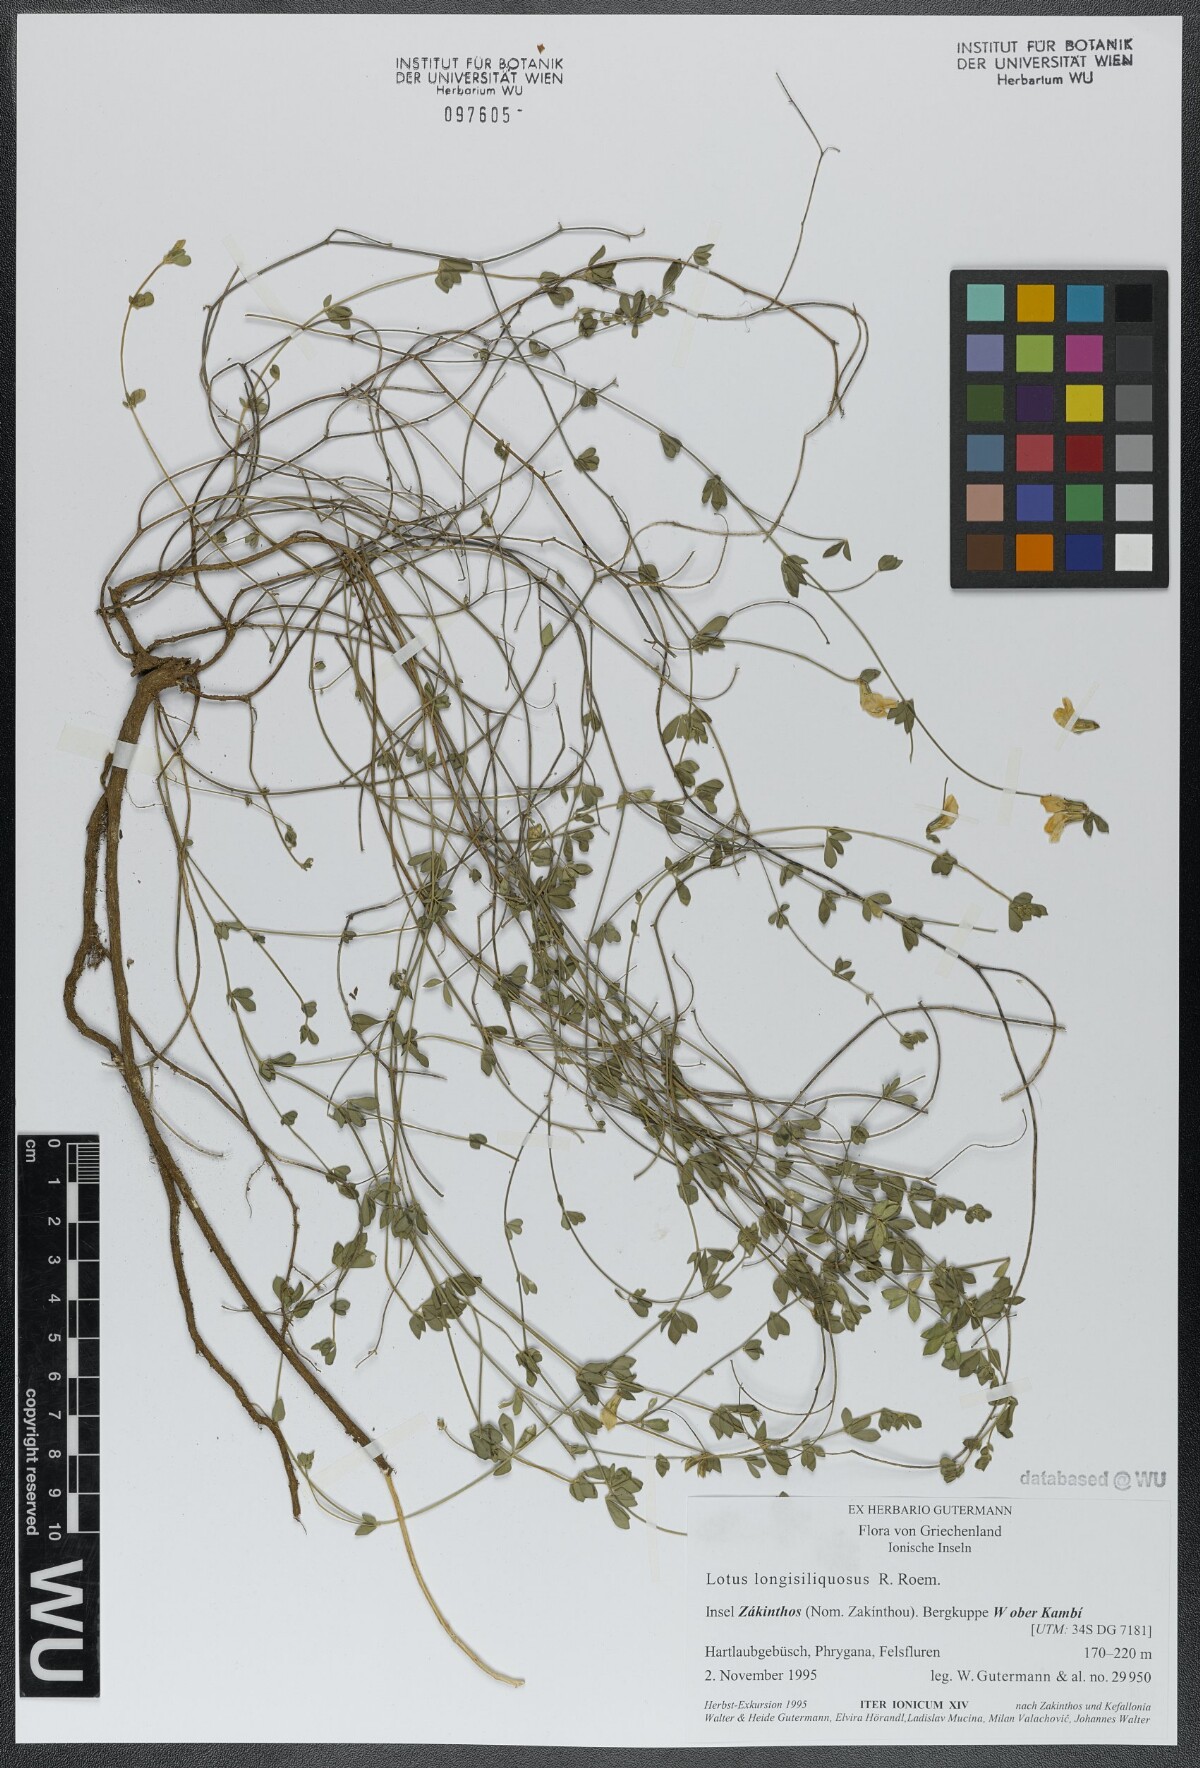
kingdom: Plantae
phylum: Tracheophyta
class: Magnoliopsida
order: Fabales
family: Fabaceae
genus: Lotus
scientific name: Lotus longisiliquosus
